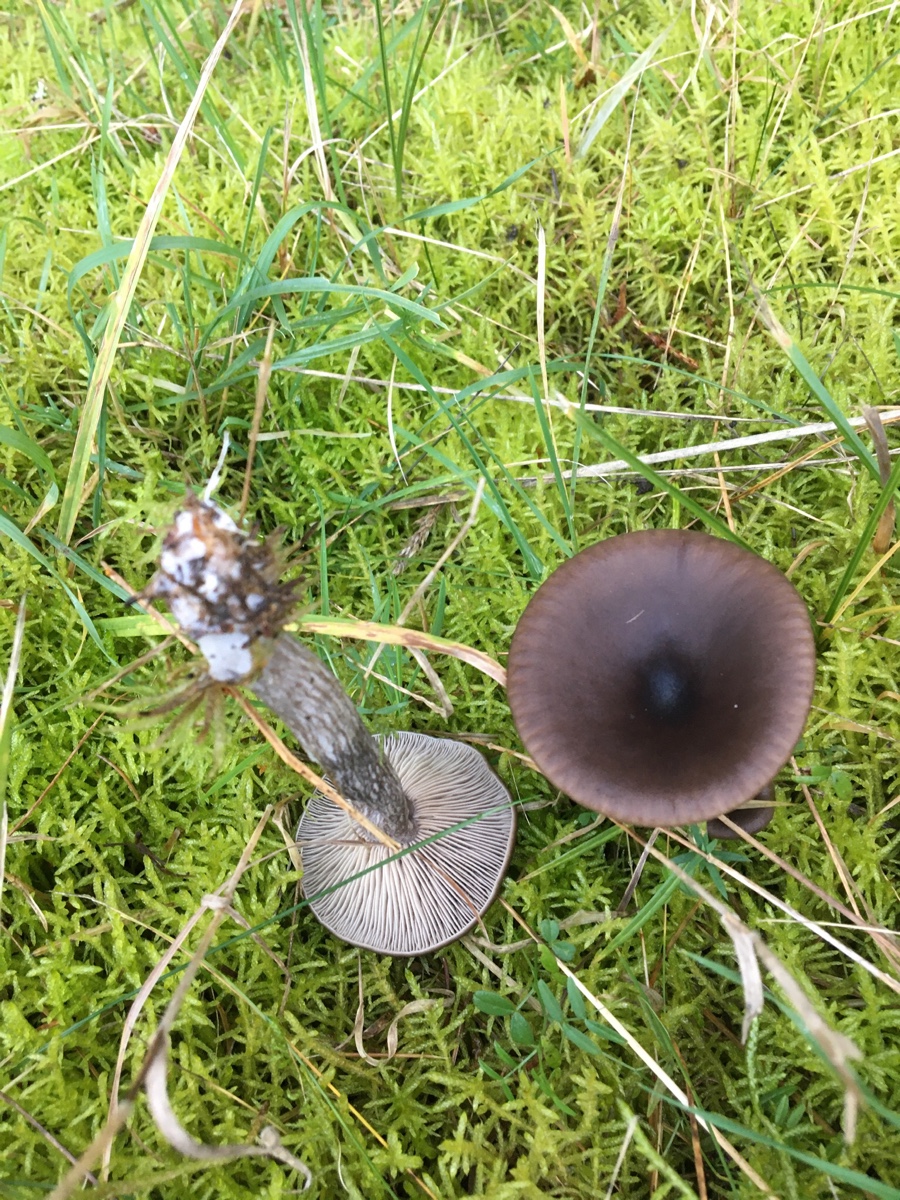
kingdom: Fungi
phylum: Basidiomycota
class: Agaricomycetes
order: Agaricales
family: Pseudoclitocybaceae
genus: Pseudoclitocybe
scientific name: Pseudoclitocybe cyathiformis
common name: almindelig bægertragthat
